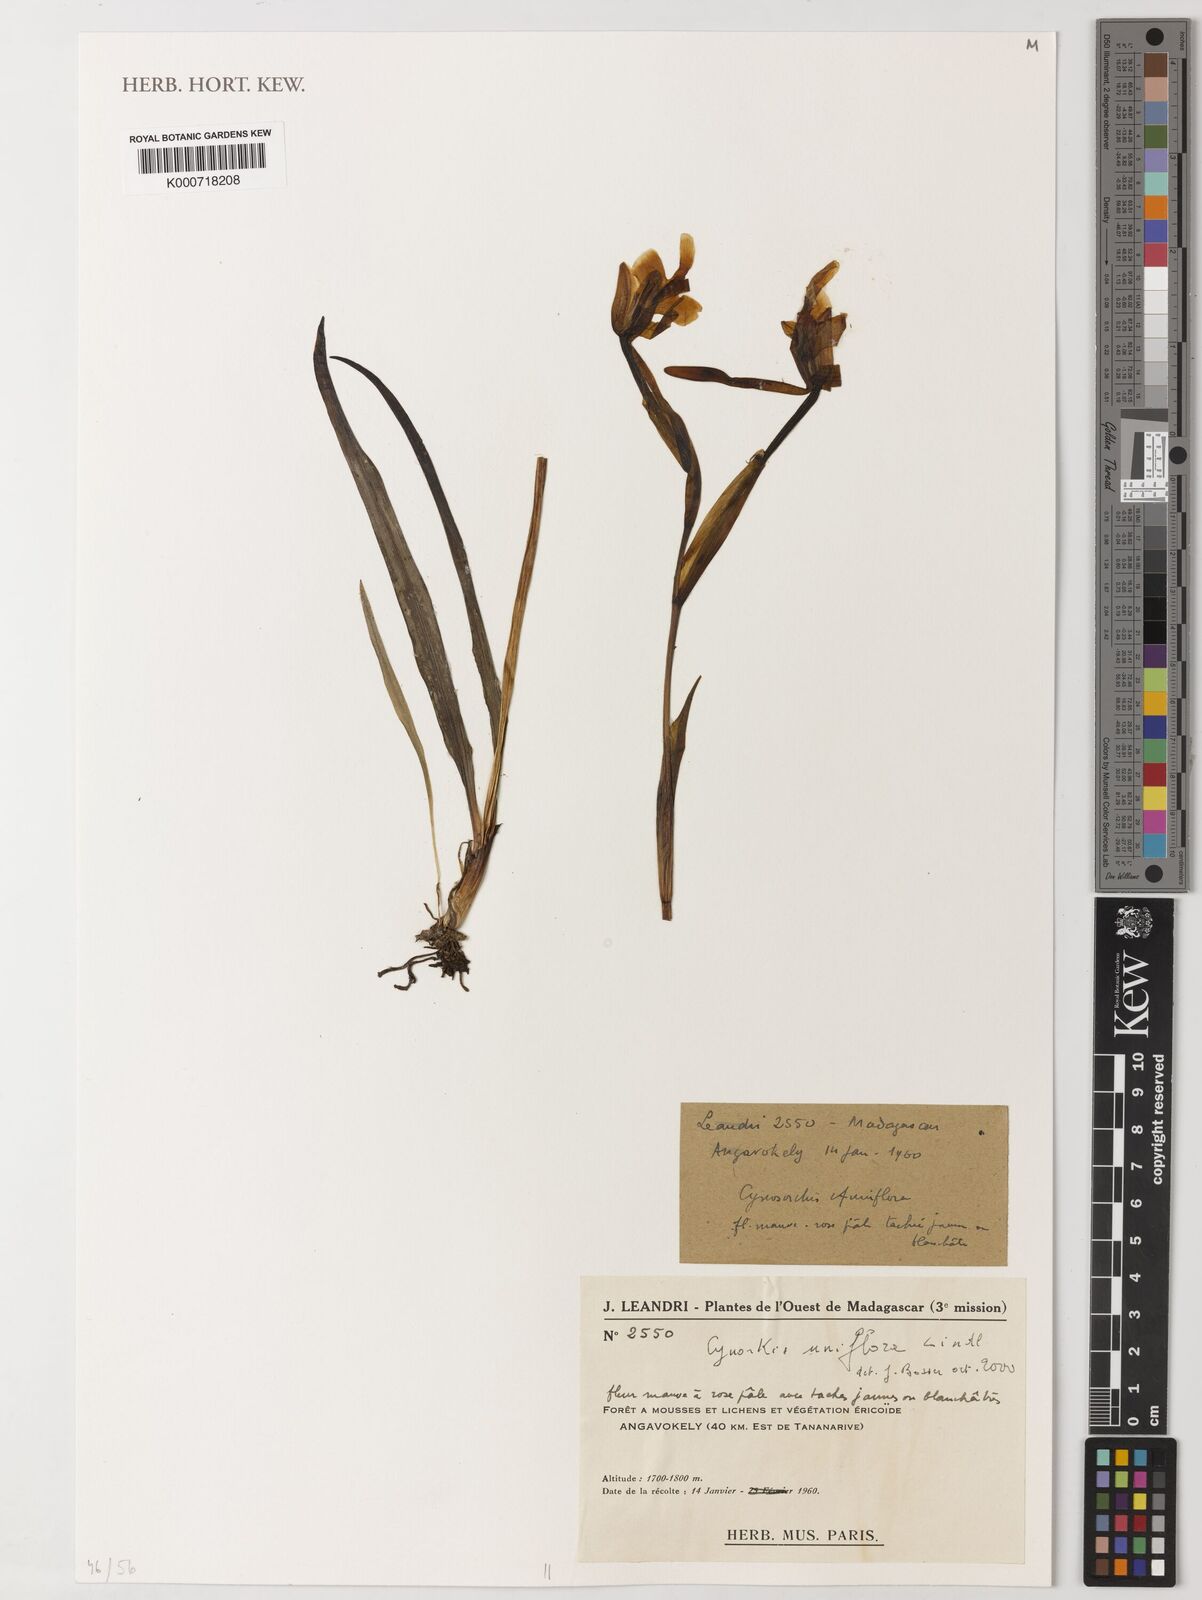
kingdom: Plantae
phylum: Tracheophyta
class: Liliopsida
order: Asparagales
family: Orchidaceae
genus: Cynorkis
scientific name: Cynorkis uniflora
